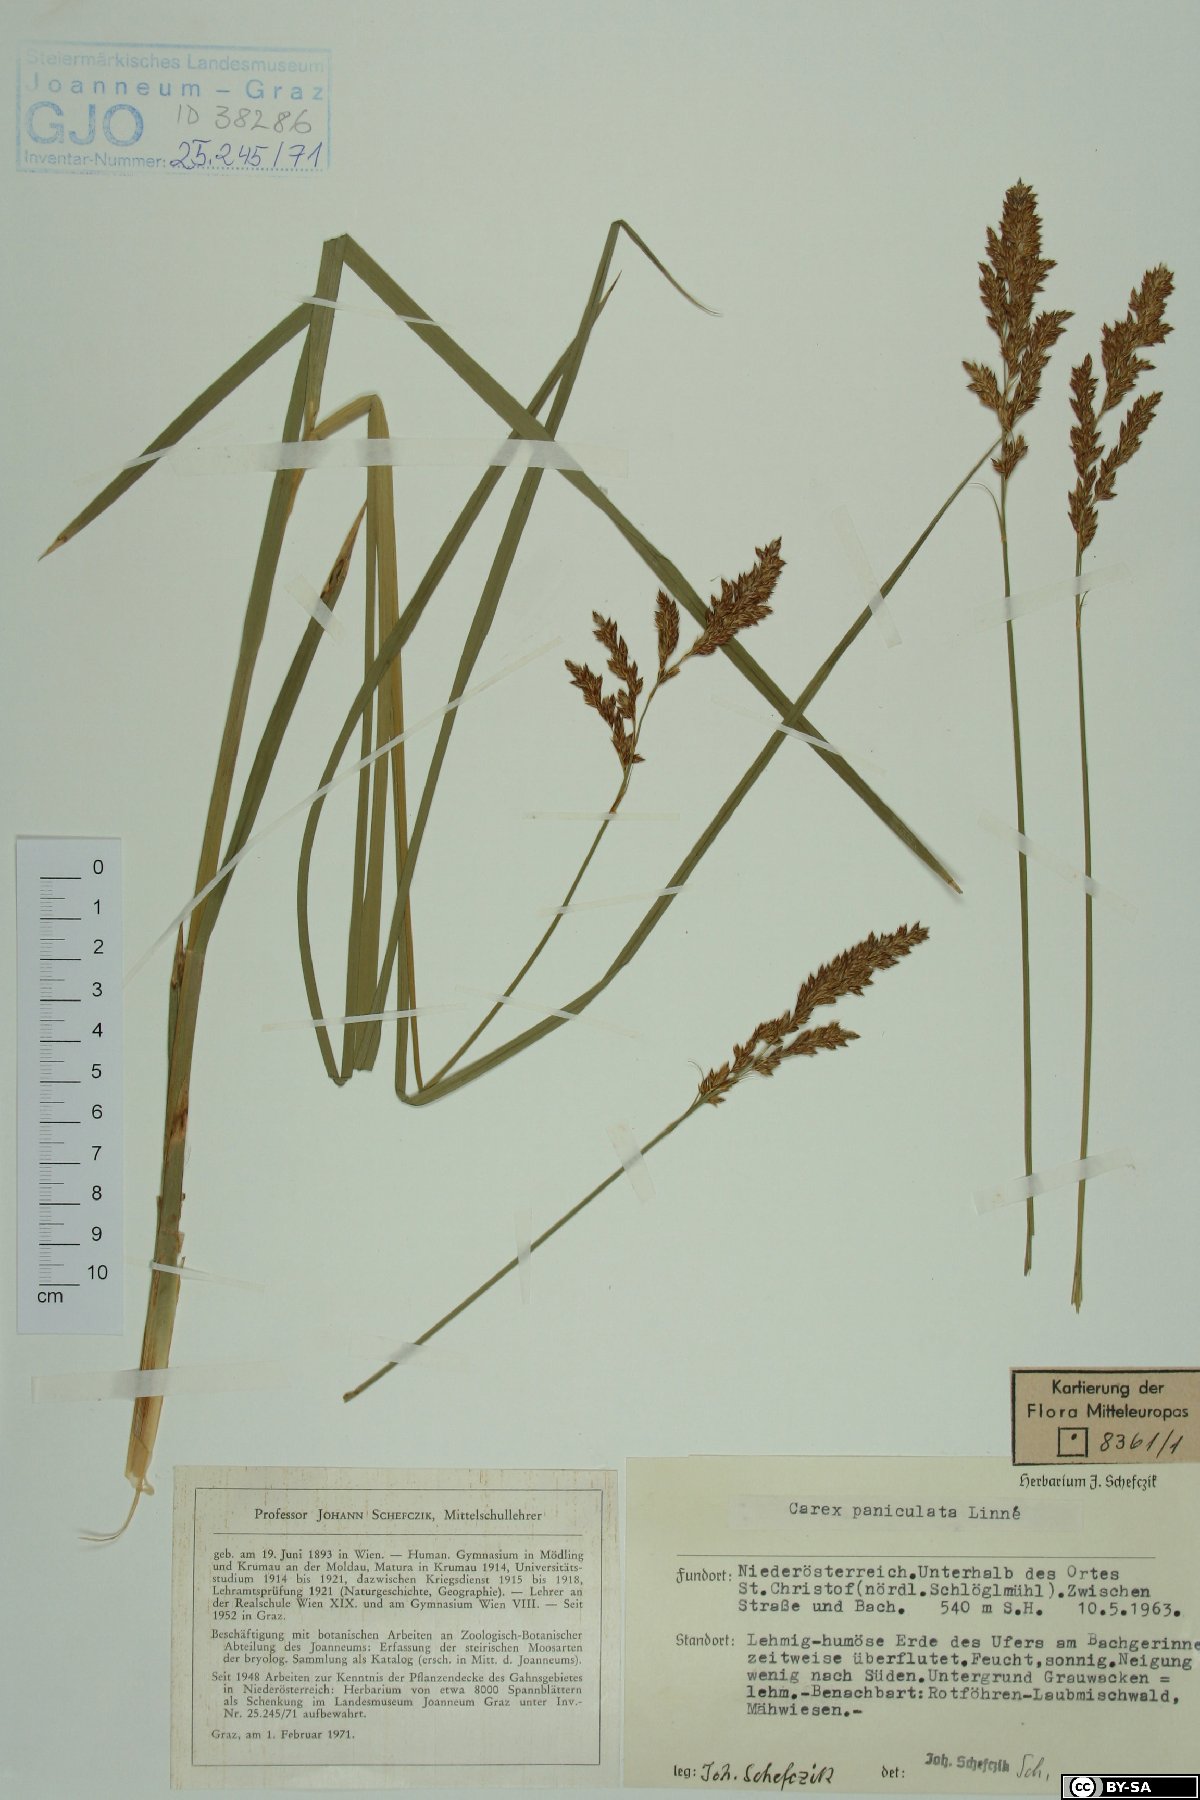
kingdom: Plantae
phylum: Tracheophyta
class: Liliopsida
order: Poales
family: Cyperaceae
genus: Carex
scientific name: Carex paniculata
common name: Greater tussock-sedge
